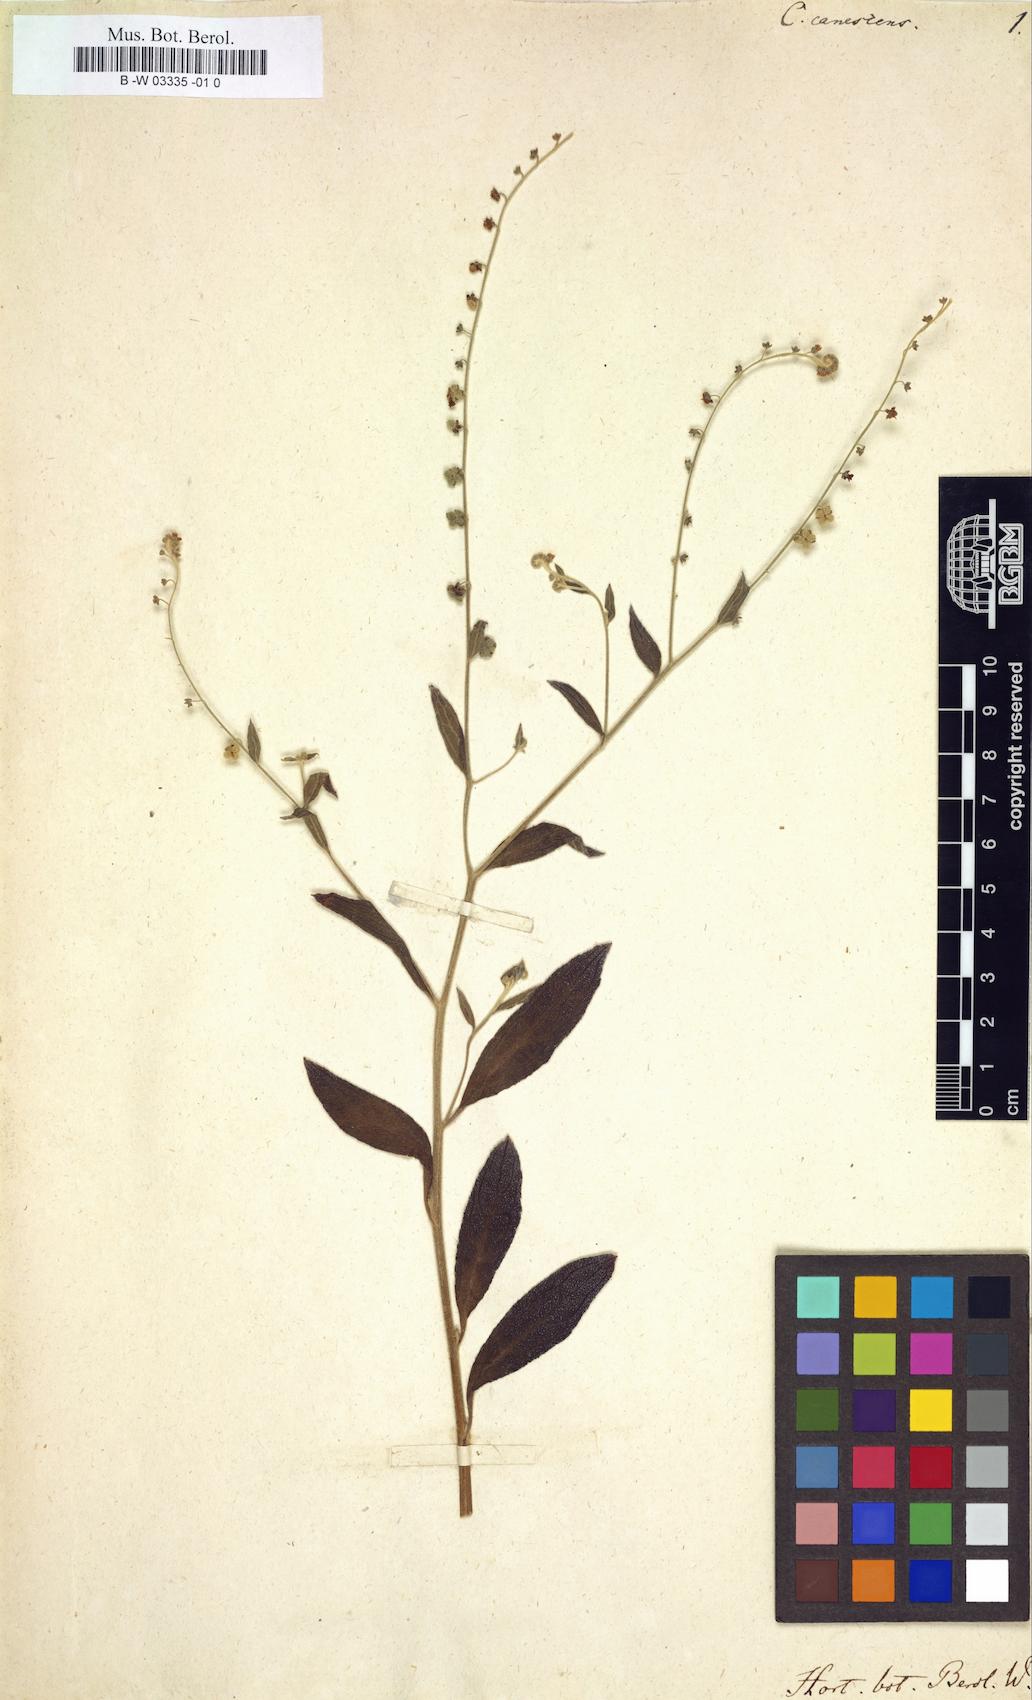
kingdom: Plantae
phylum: Tracheophyta
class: Magnoliopsida
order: Boraginales
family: Boraginaceae
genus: Paracynoglossum
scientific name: Paracynoglossum
